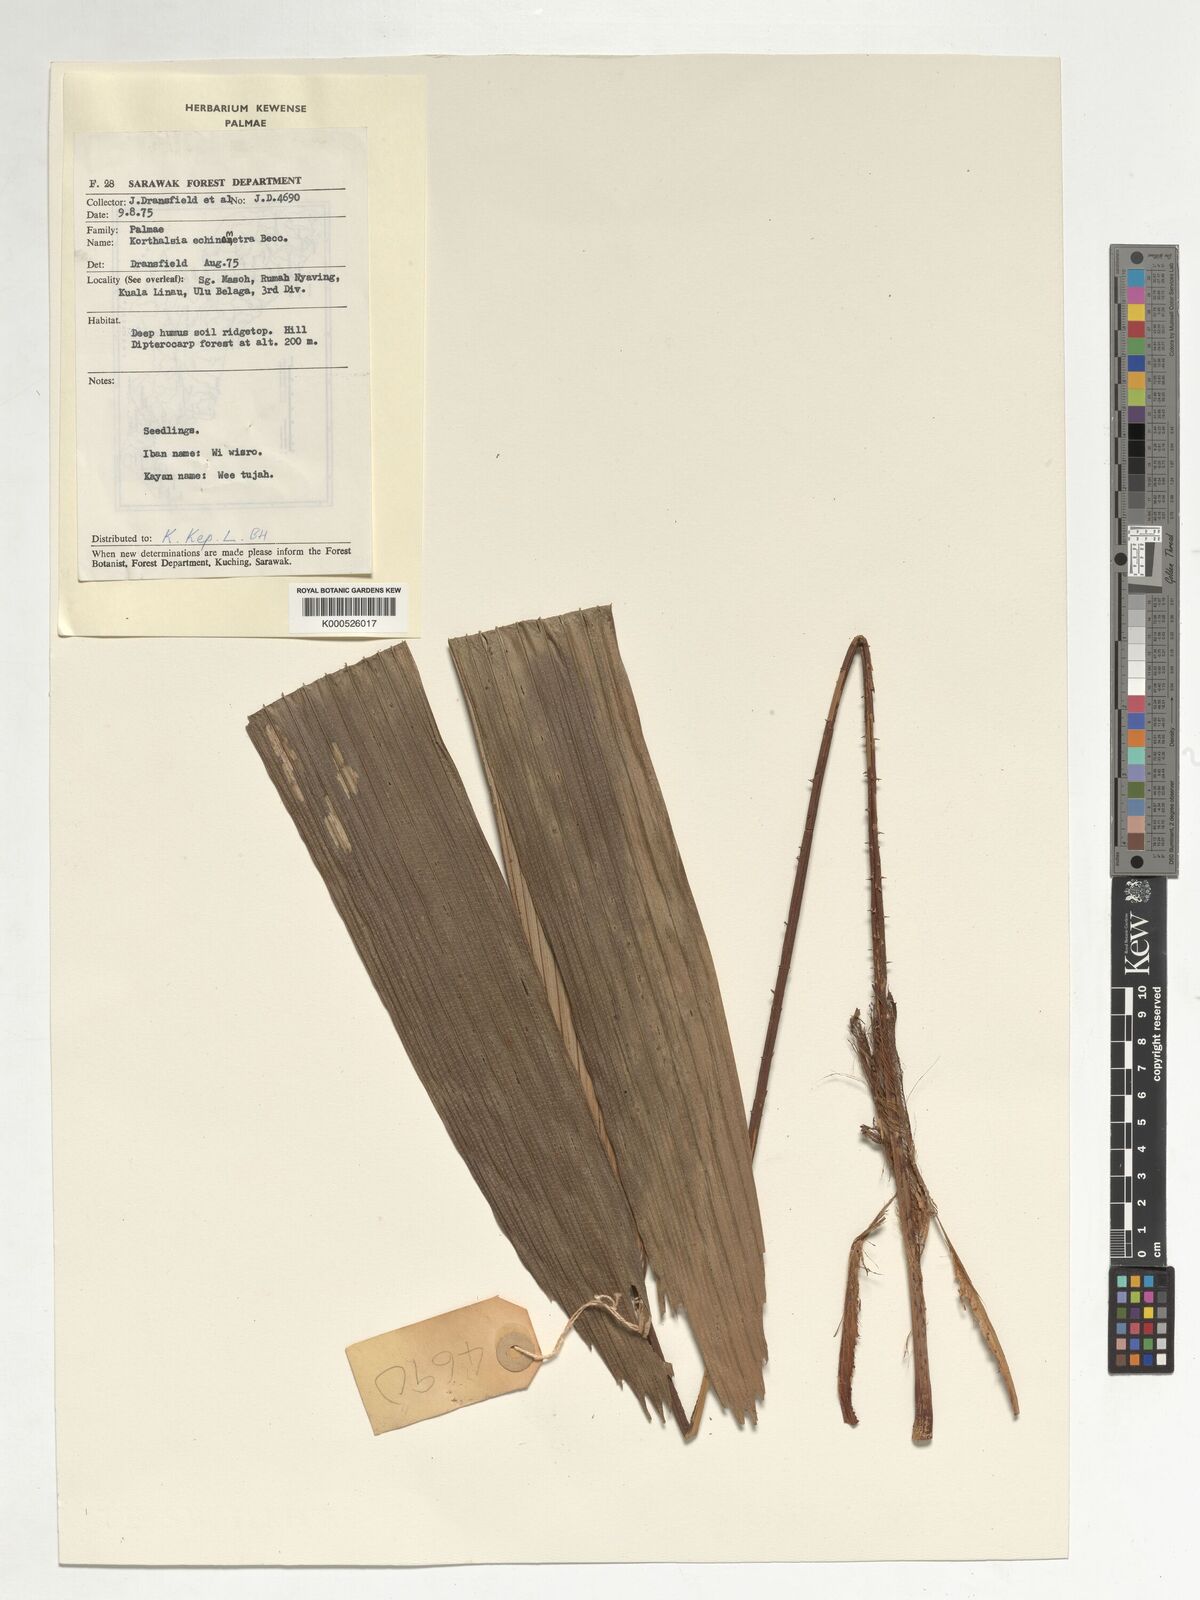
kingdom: Plantae
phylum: Tracheophyta
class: Liliopsida
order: Arecales
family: Arecaceae
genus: Korthalsia
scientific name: Korthalsia echinometra
